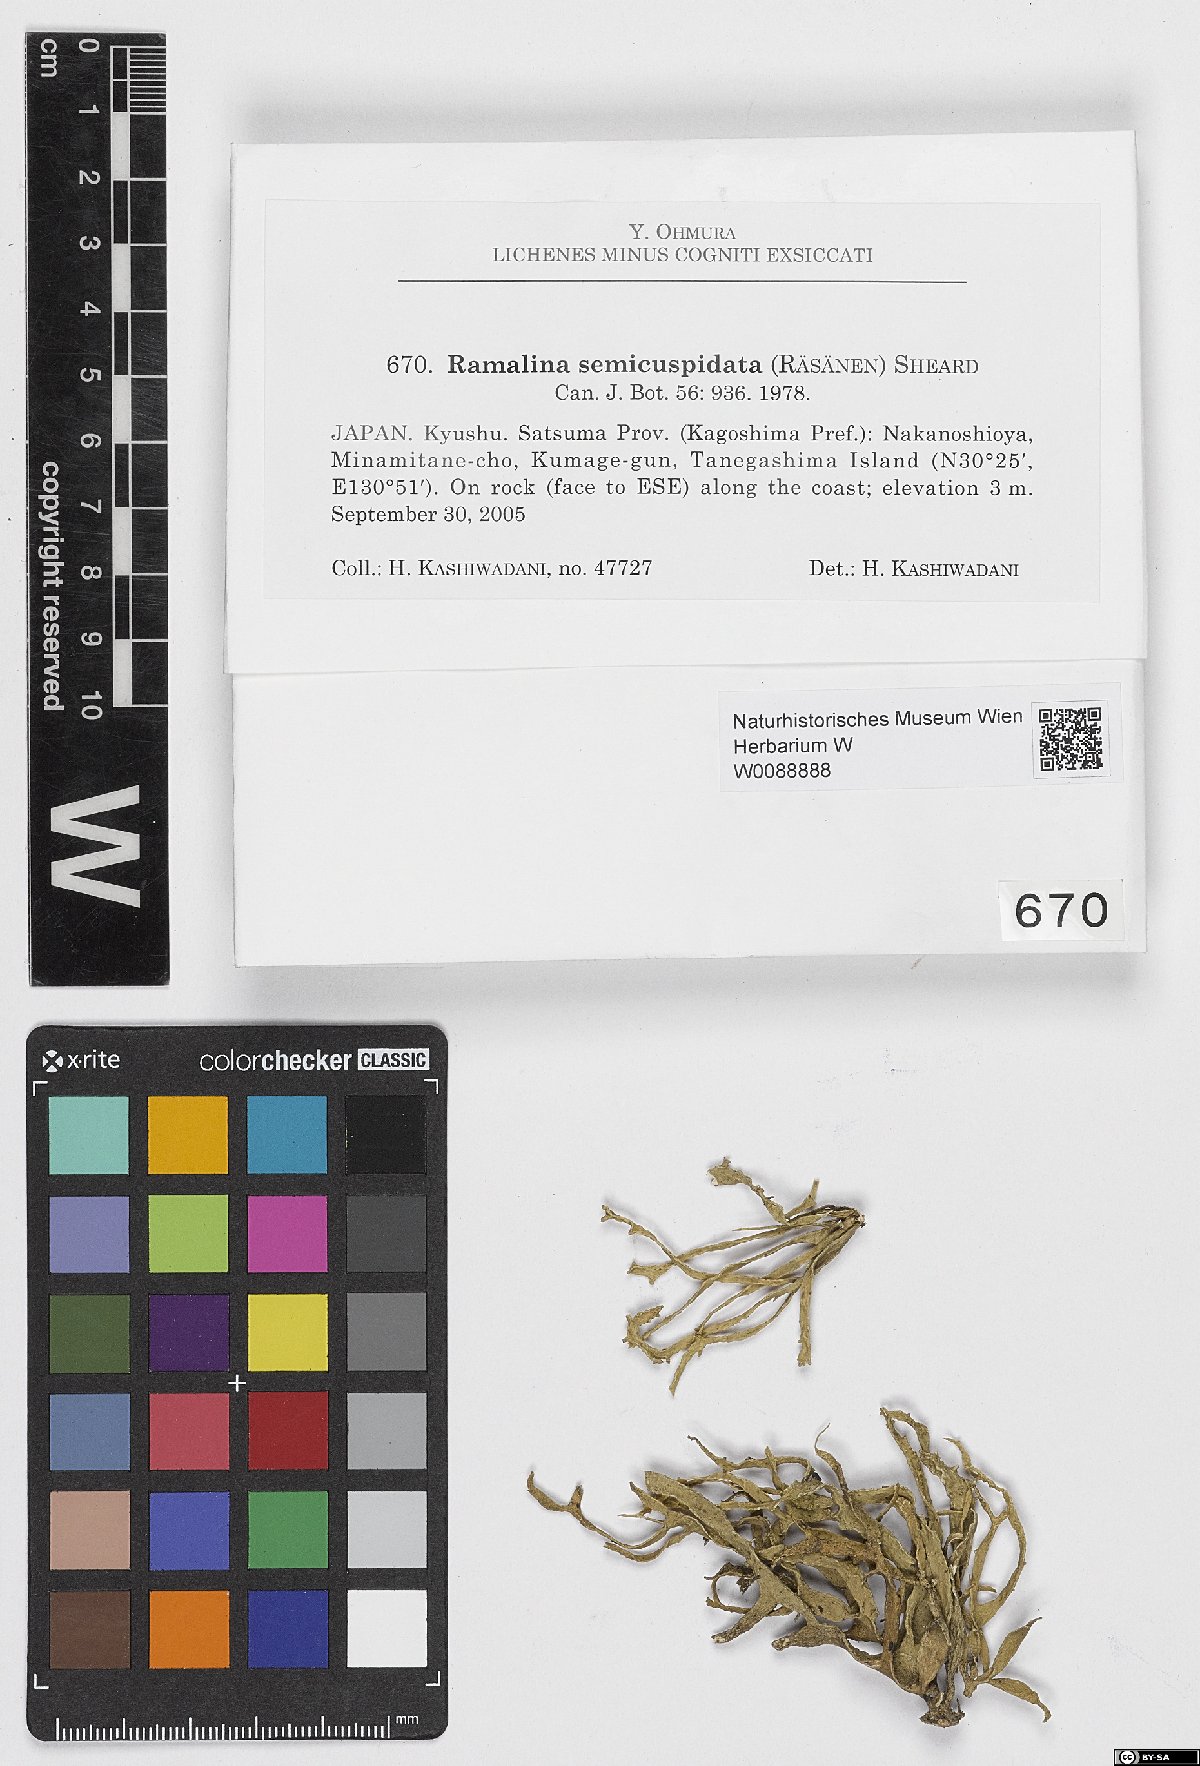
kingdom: Fungi
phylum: Ascomycota
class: Lecanoromycetes
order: Lecanorales
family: Ramalinaceae
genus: Ramalina
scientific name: Ramalina semicuspidata
